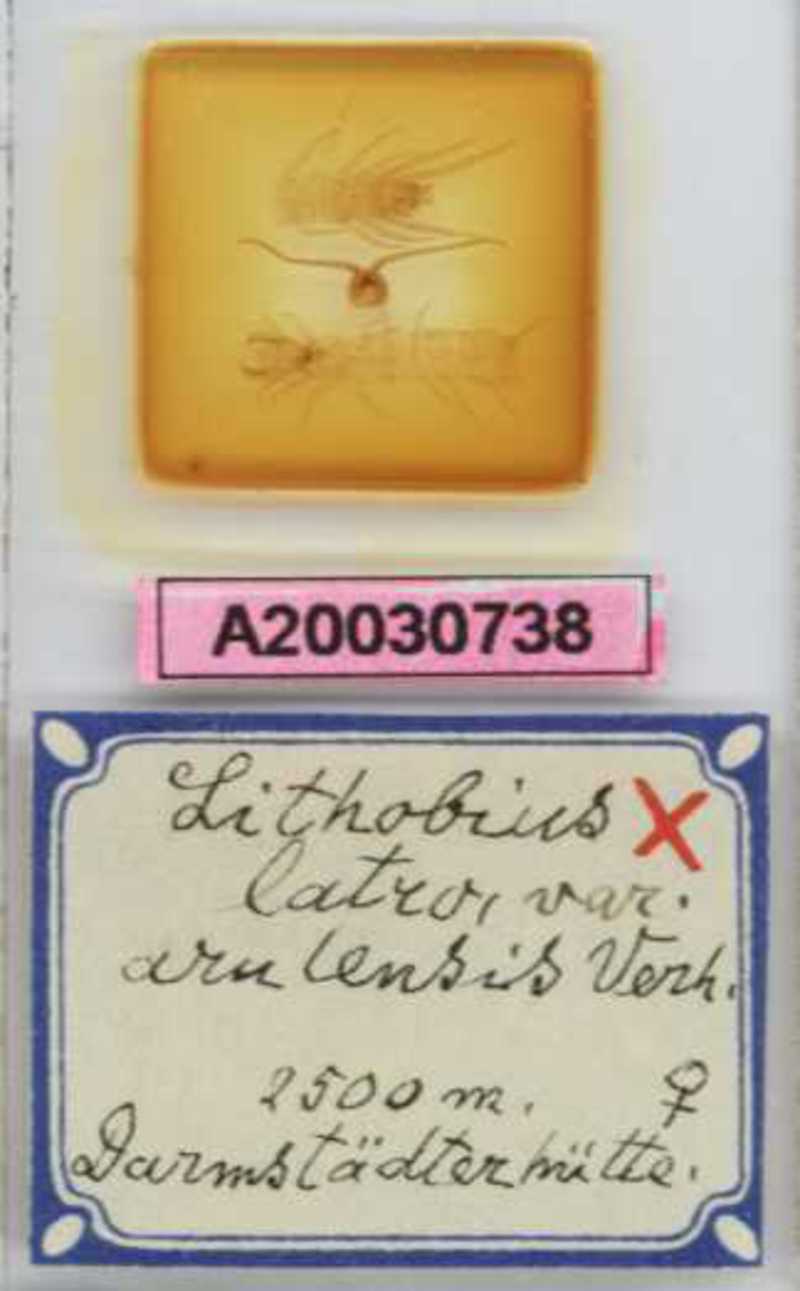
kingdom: Animalia
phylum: Arthropoda
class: Chilopoda
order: Lithobiomorpha
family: Lithobiidae
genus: Lithobius
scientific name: Lithobius latro
